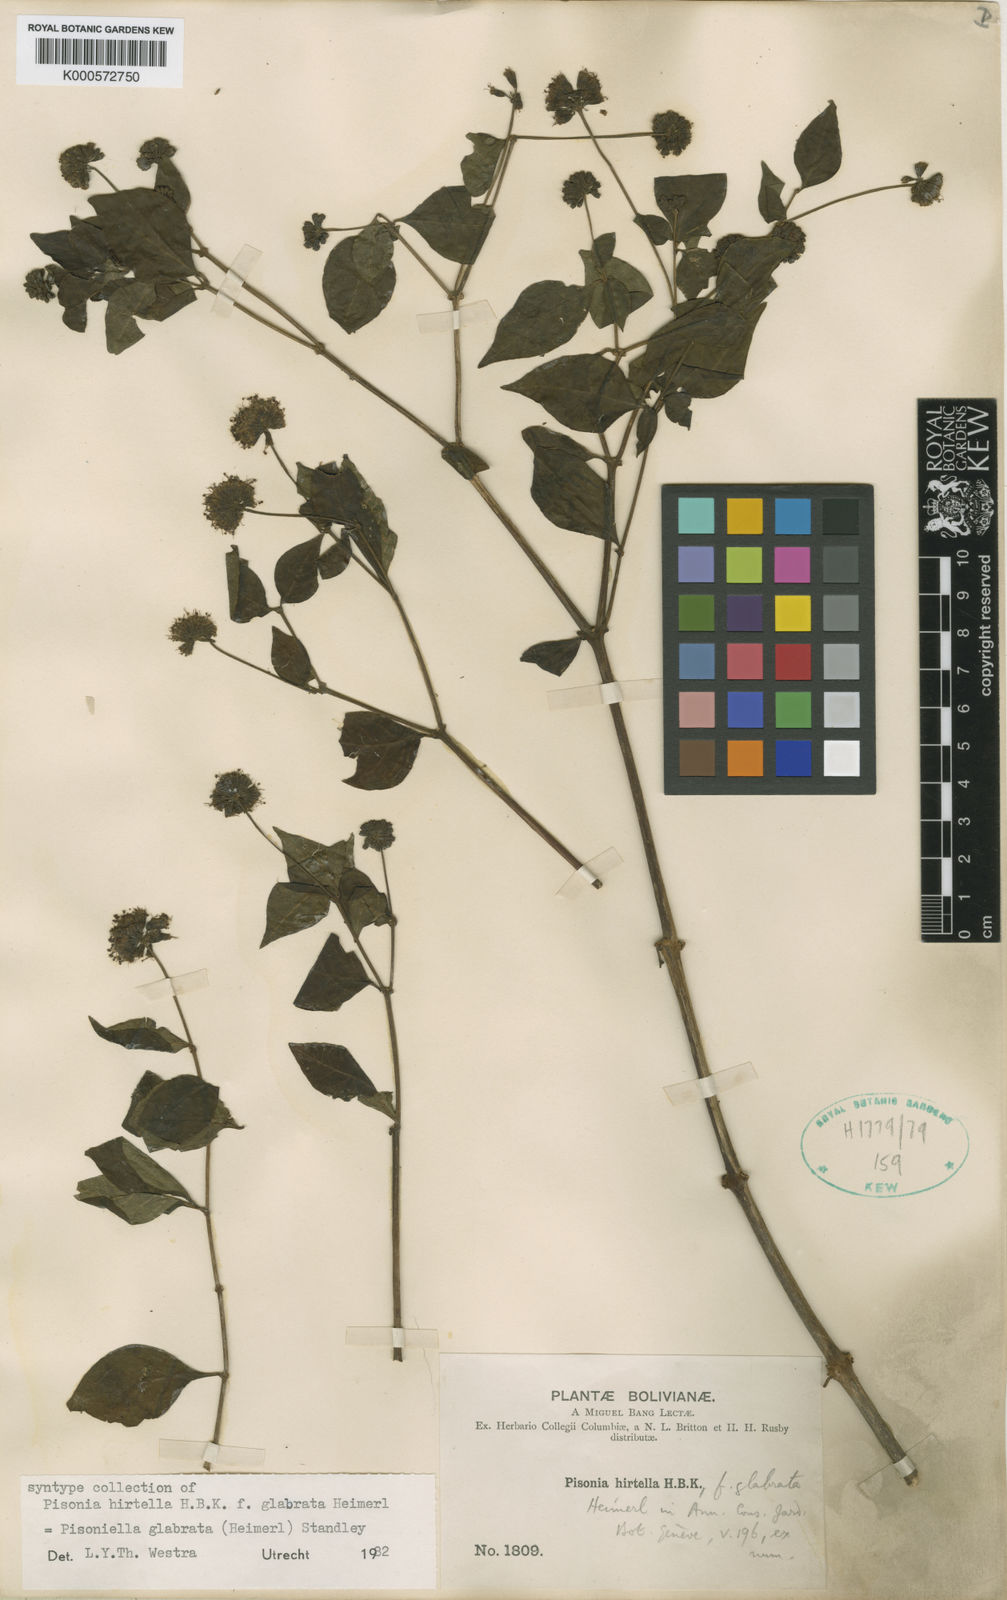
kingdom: Plantae
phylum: Tracheophyta
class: Magnoliopsida
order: Caryophyllales
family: Nyctaginaceae
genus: Pisoniella
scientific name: Pisoniella arborescens
